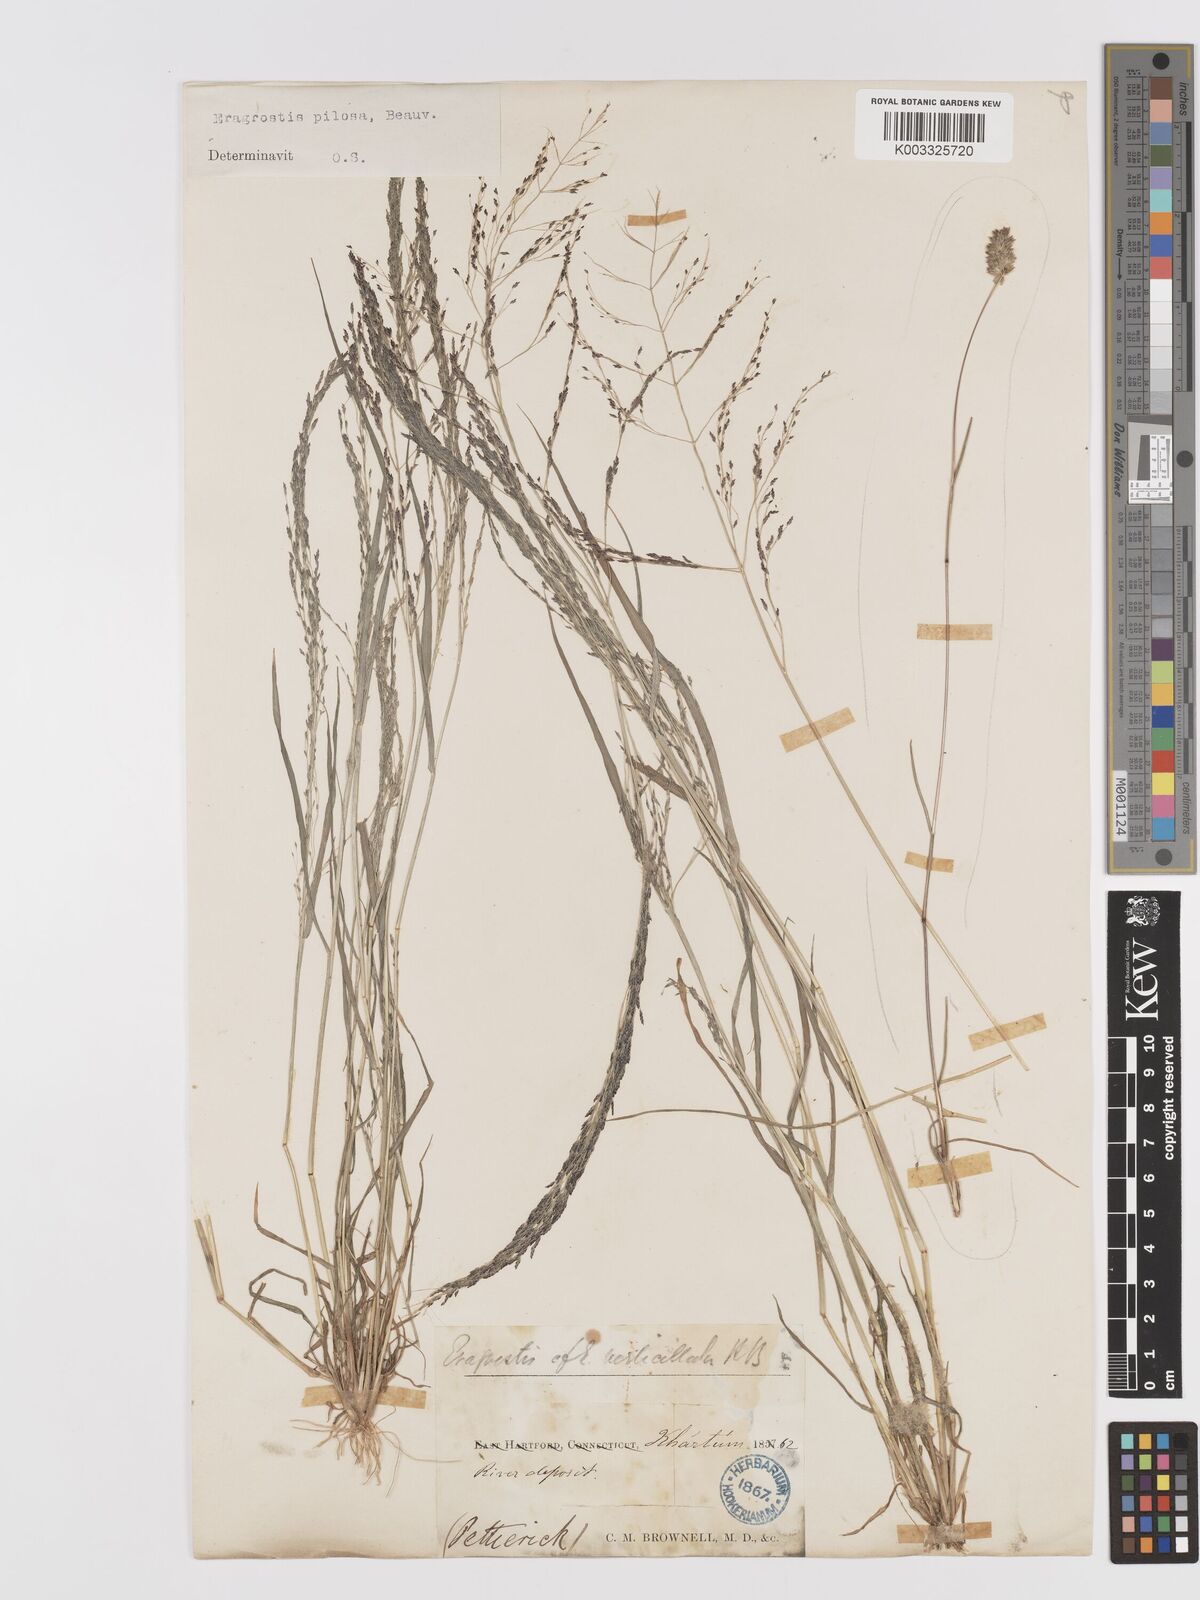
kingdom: Plantae
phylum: Tracheophyta
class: Liliopsida
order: Poales
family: Poaceae
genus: Eragrostis
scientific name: Eragrostis pilosa
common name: Indian lovegrass
